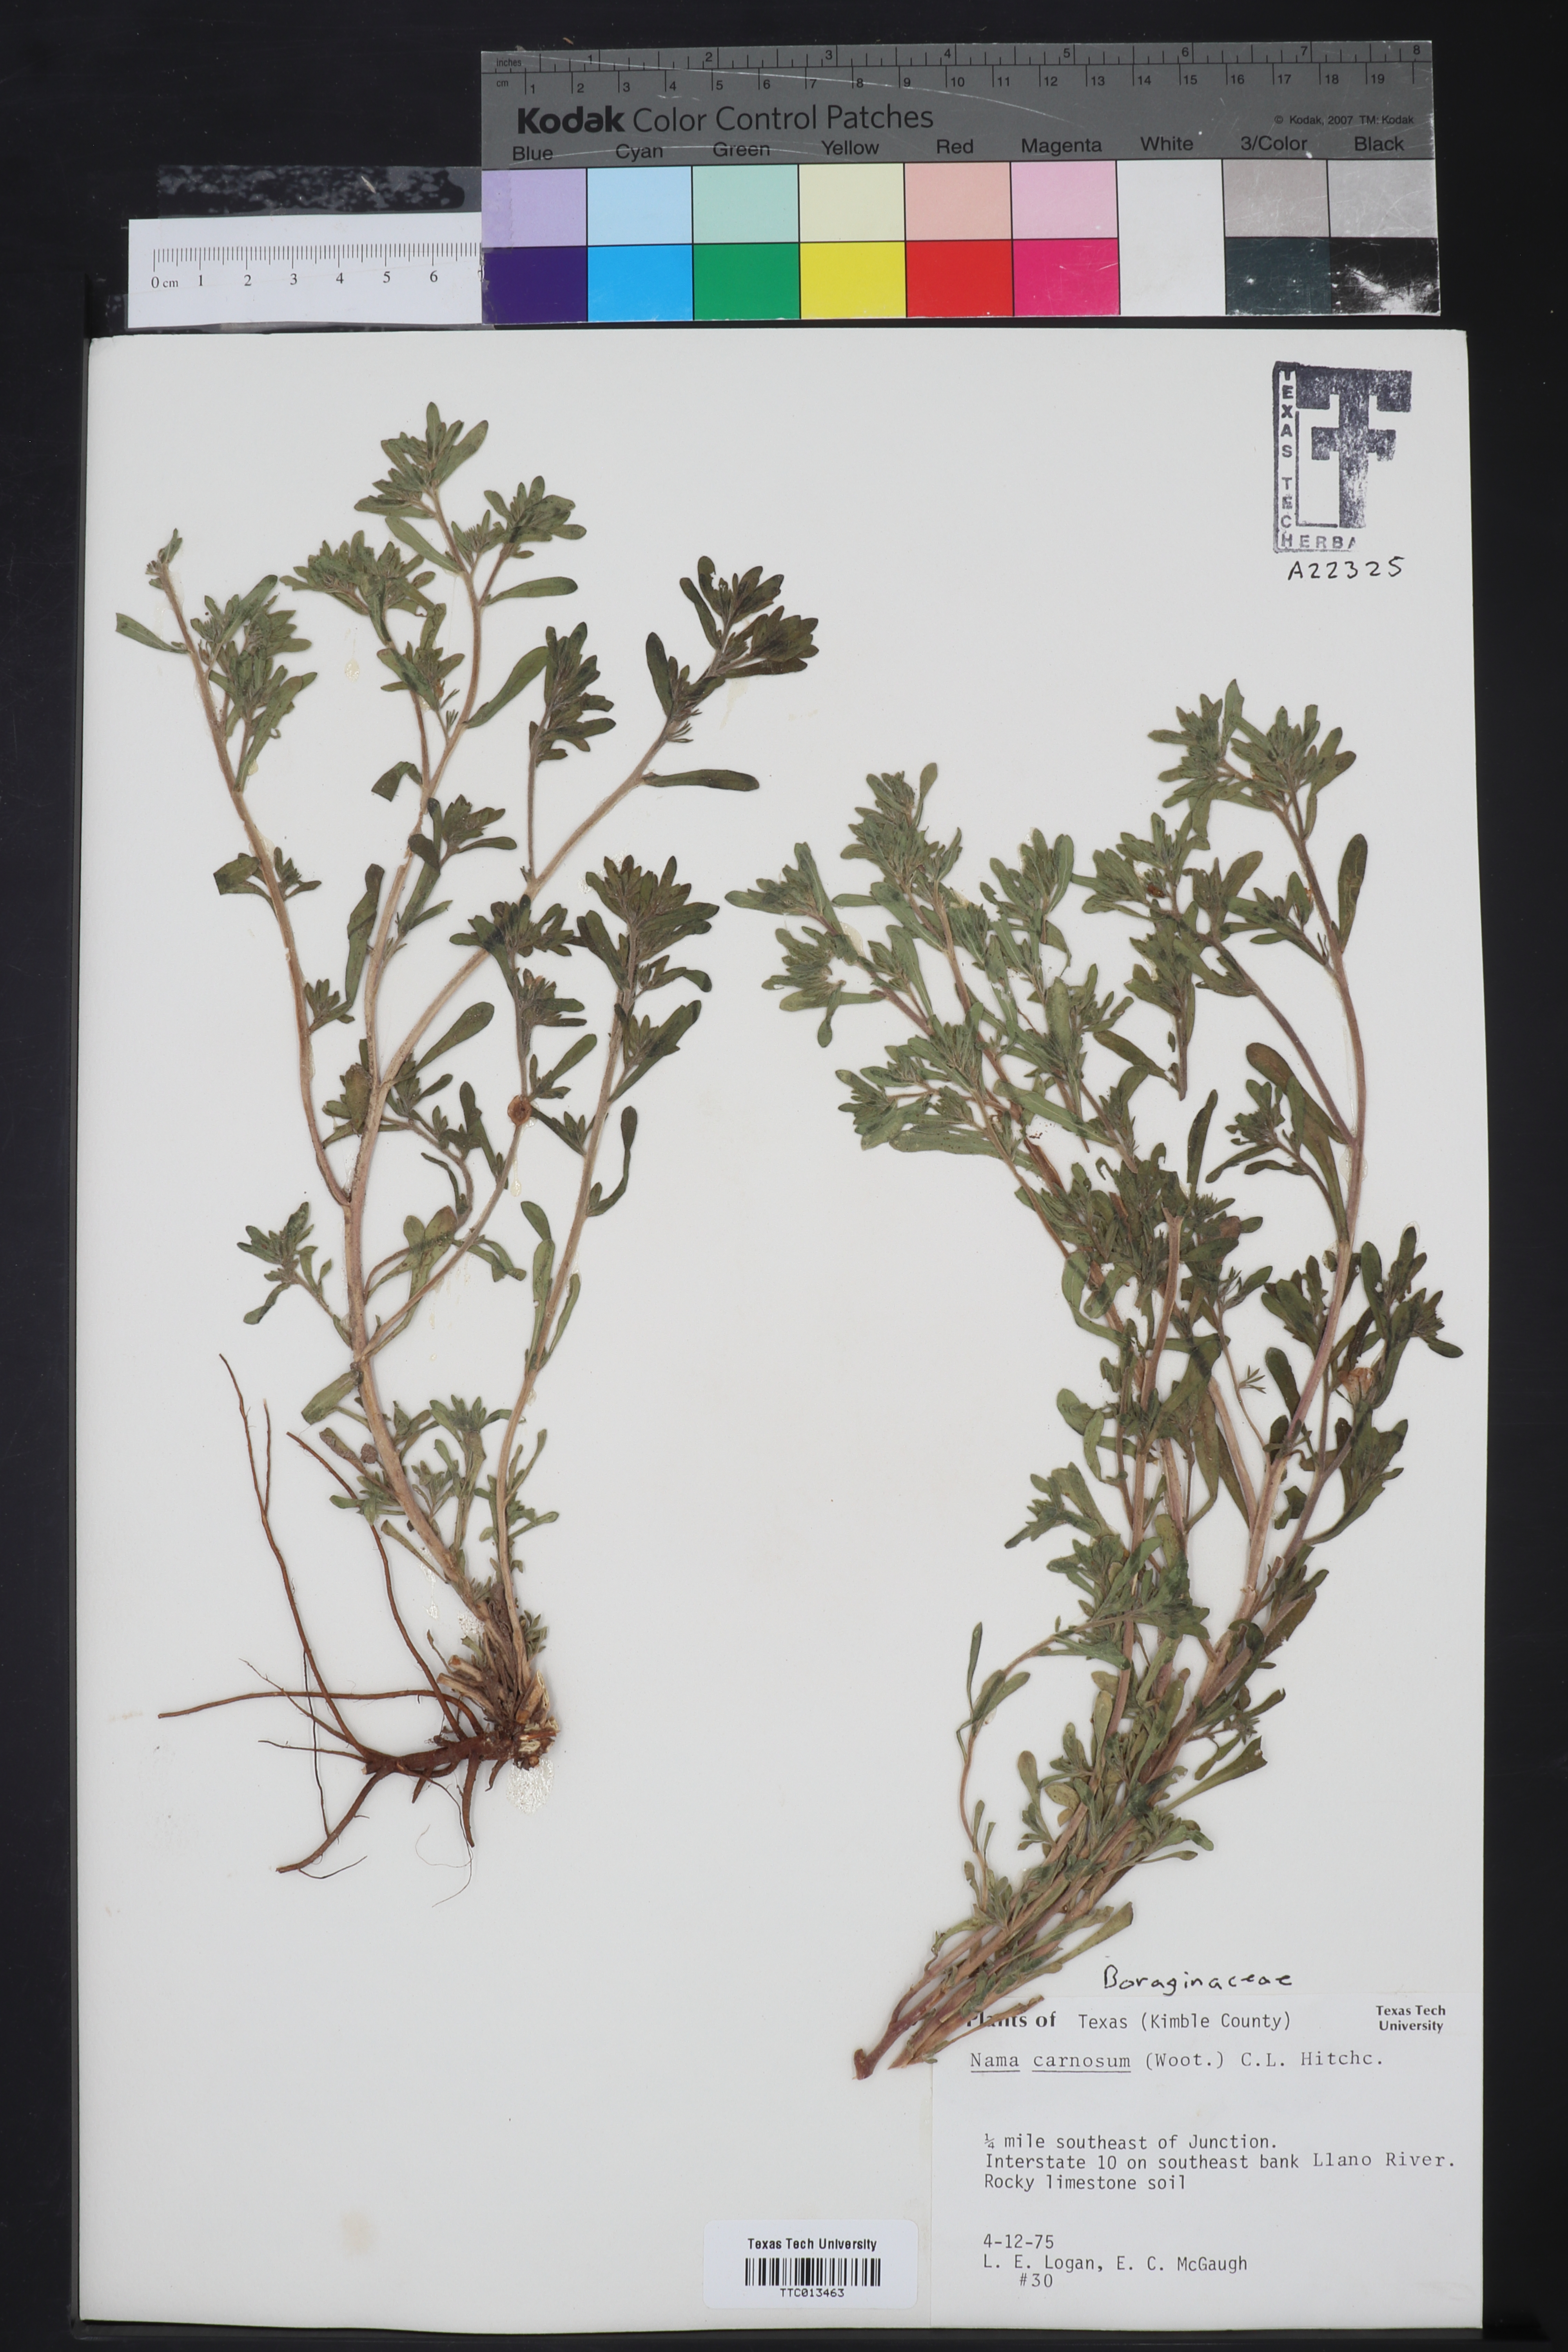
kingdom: Plantae
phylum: Tracheophyta
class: Magnoliopsida
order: Boraginales
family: Namaceae
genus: Andropus
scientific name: Andropus carnosus
